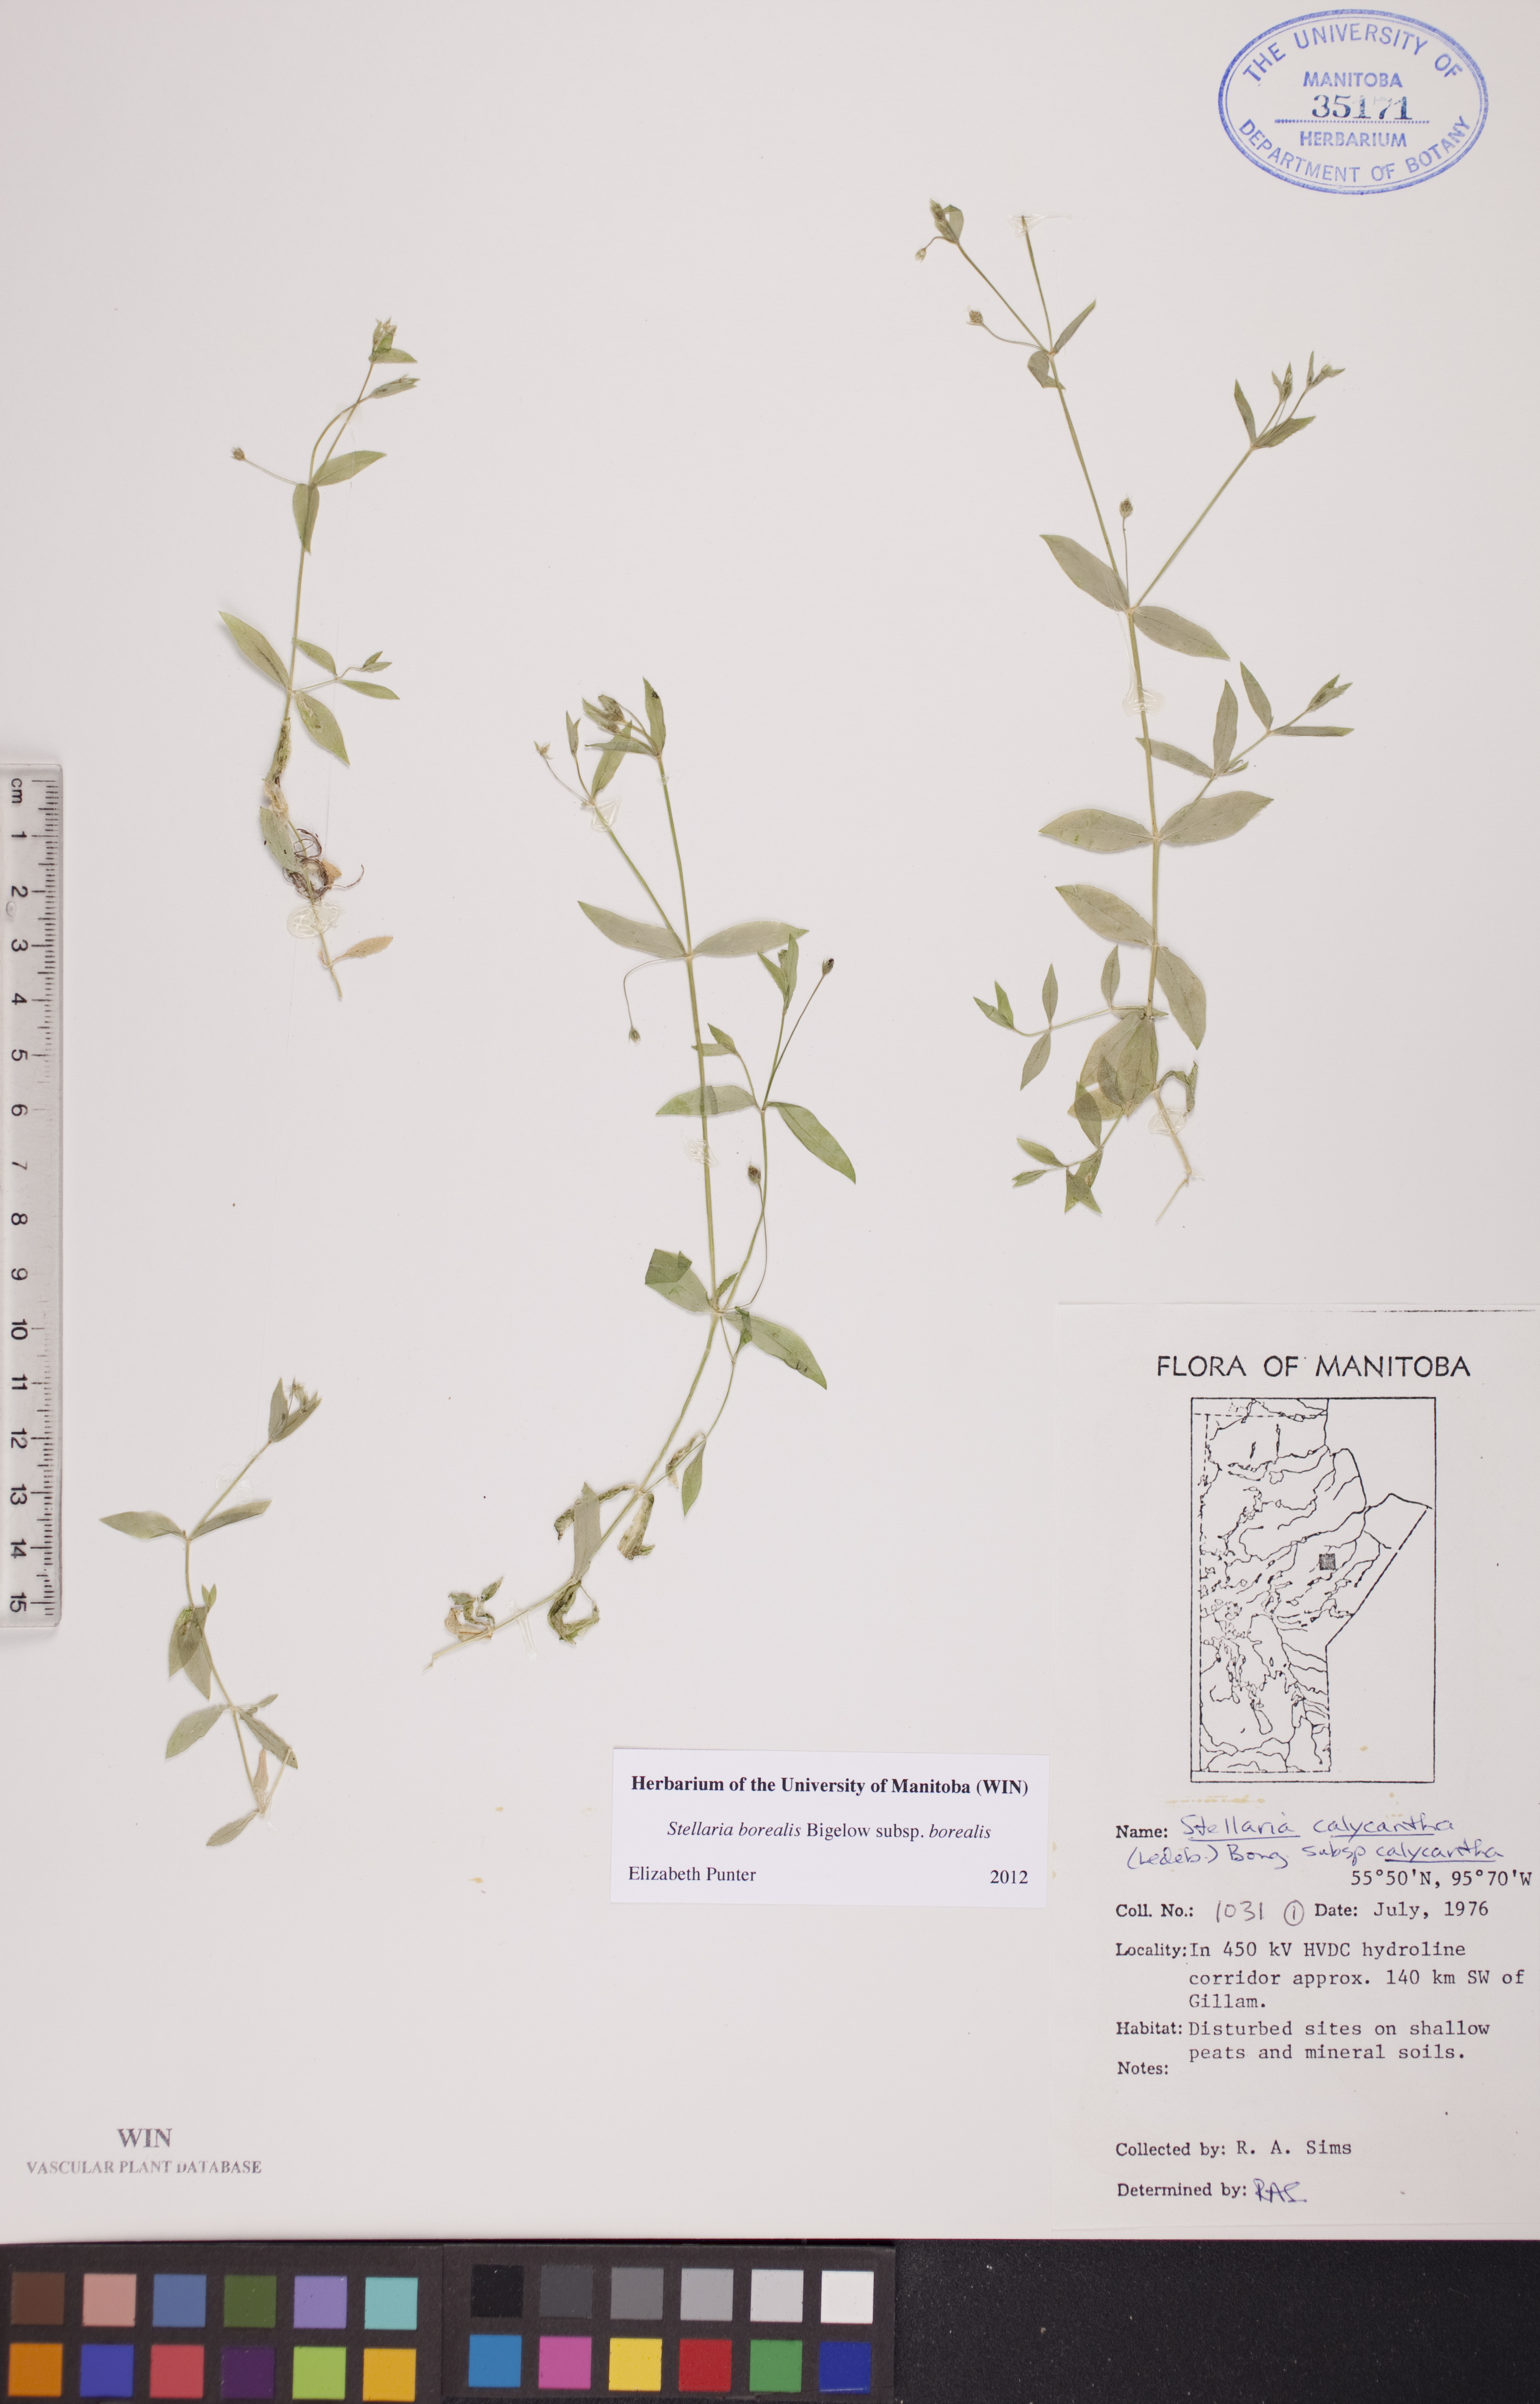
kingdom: Plantae
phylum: Tracheophyta
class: Magnoliopsida
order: Caryophyllales
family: Caryophyllaceae
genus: Stellaria
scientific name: Stellaria borealis
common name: Boreal starwort
